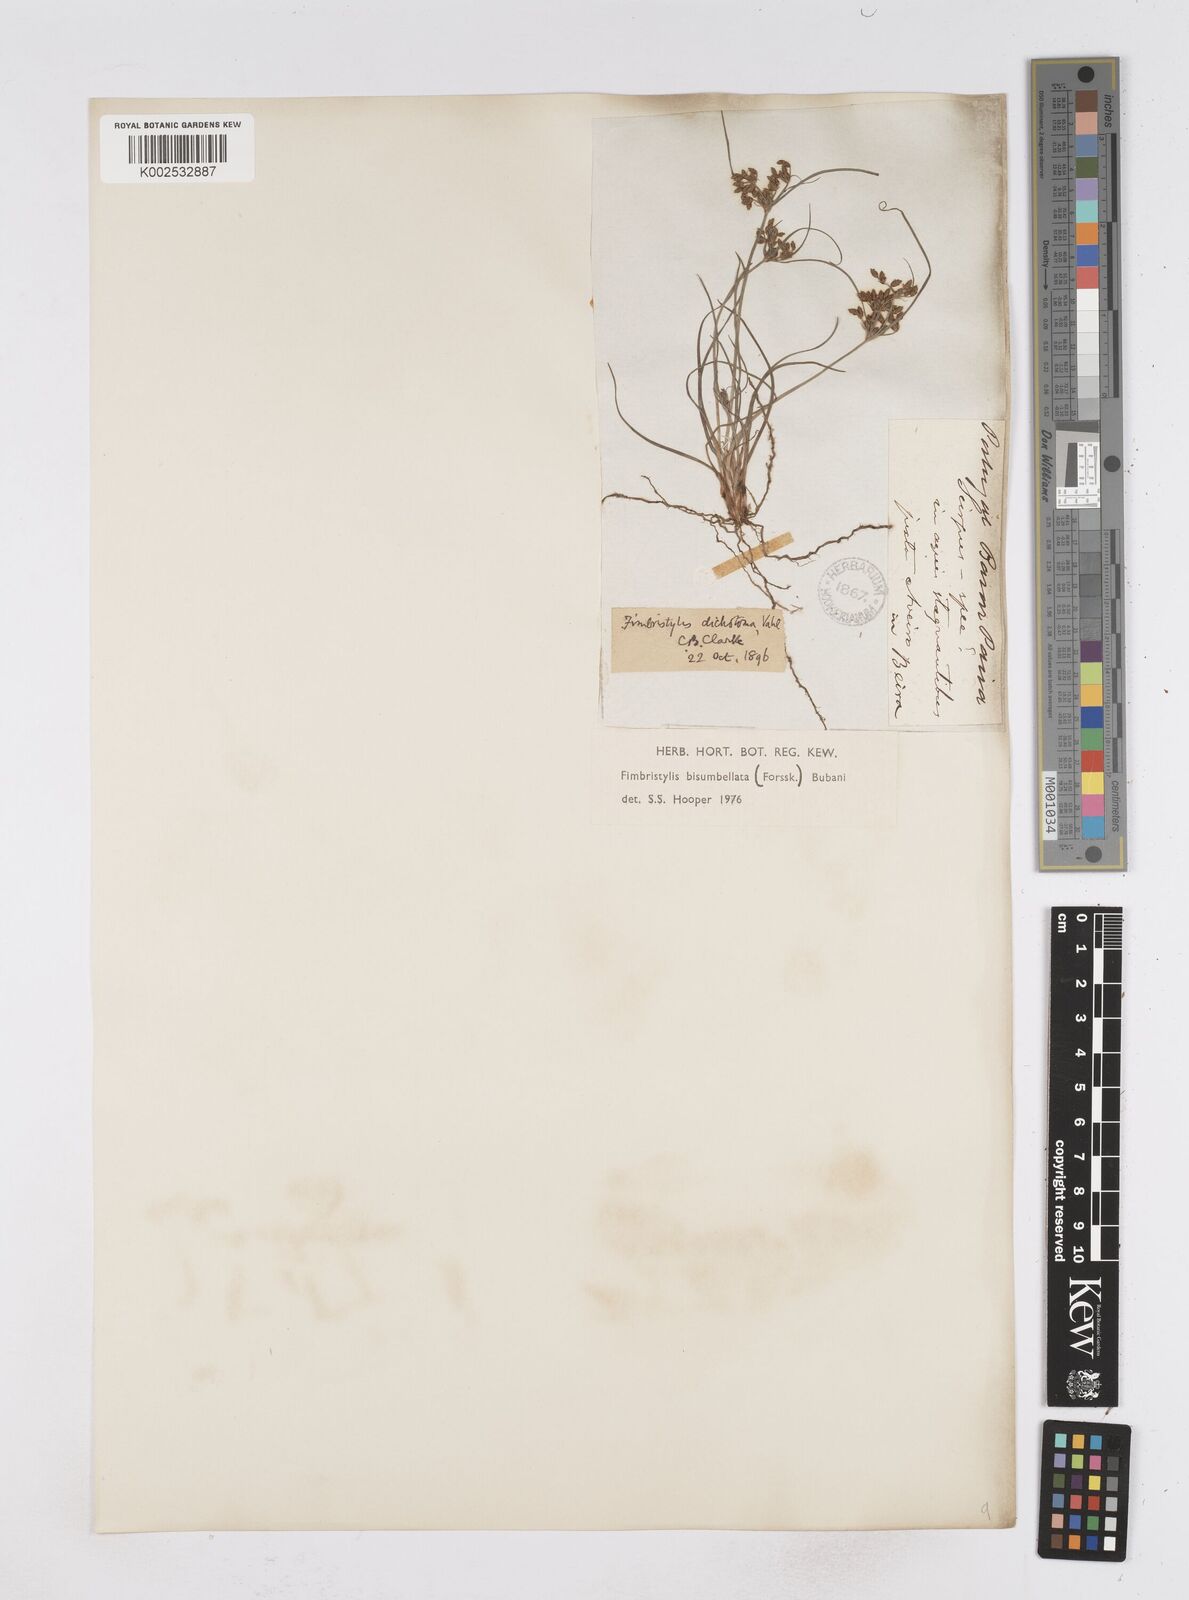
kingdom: Plantae
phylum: Tracheophyta
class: Liliopsida
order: Poales
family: Cyperaceae
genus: Fimbristylis
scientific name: Fimbristylis bisumbellata
